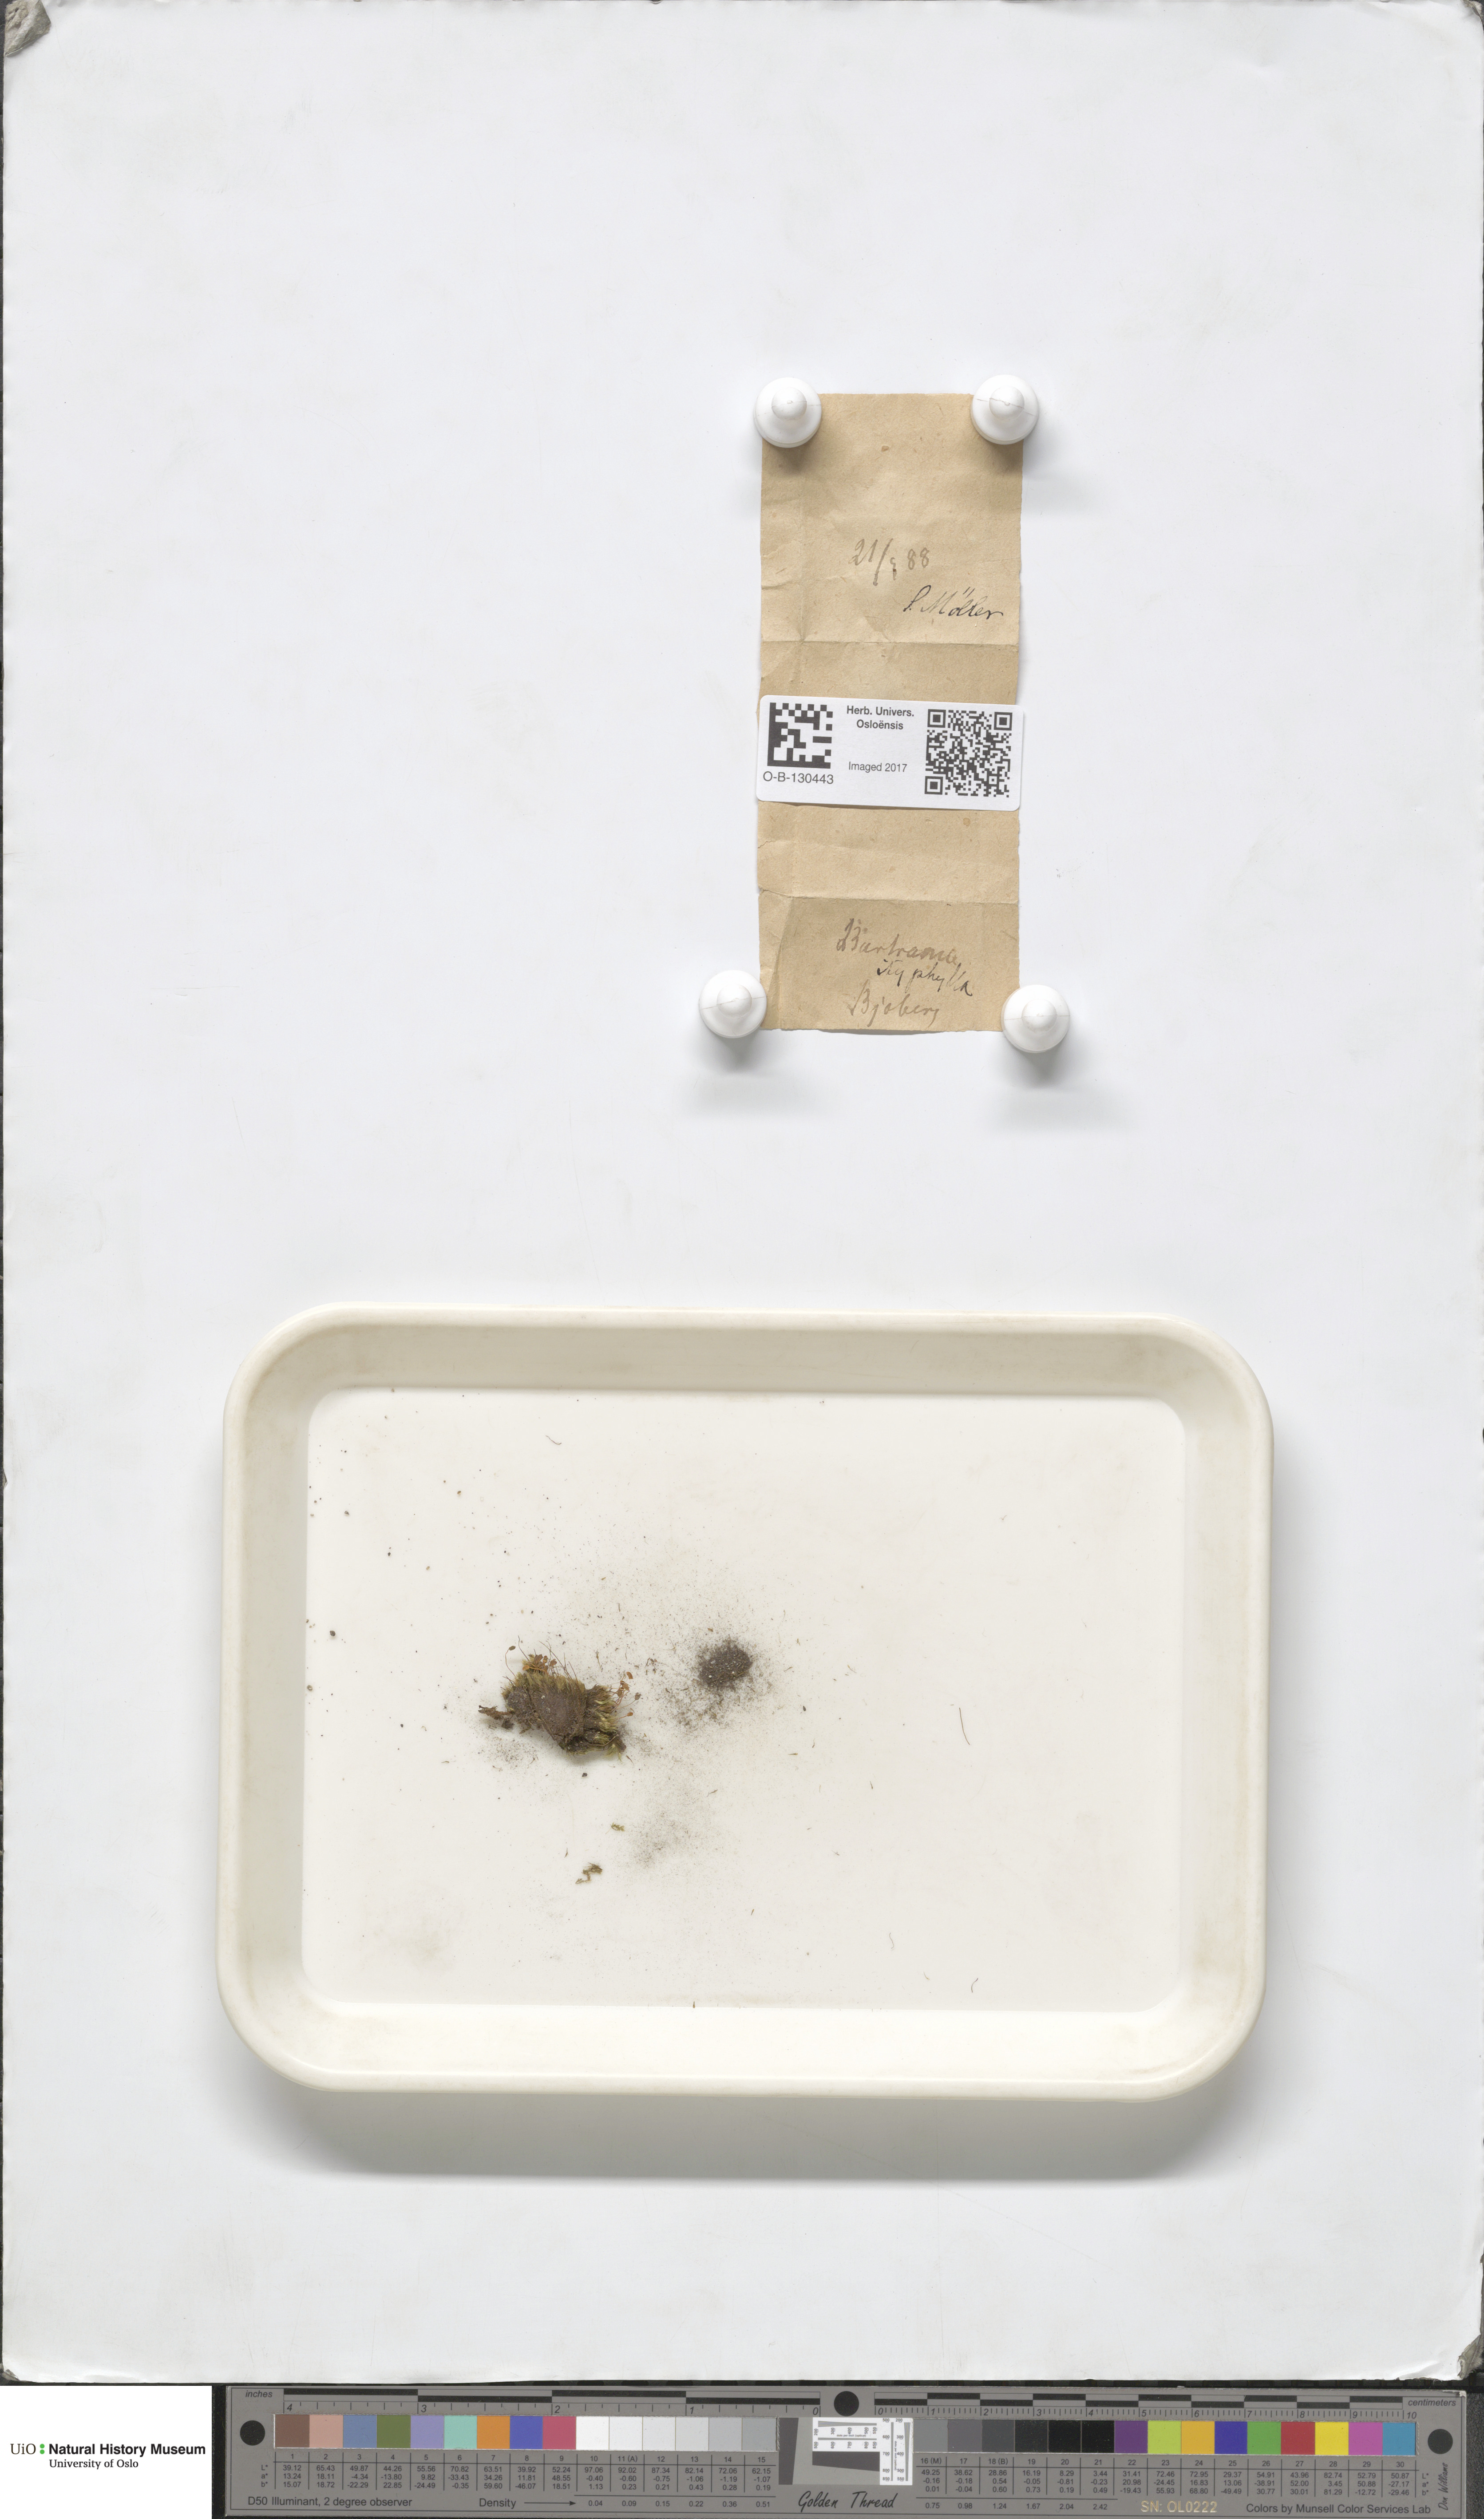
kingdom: Plantae
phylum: Bryophyta
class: Bryopsida
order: Bartramiales
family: Bartramiaceae
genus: Bartramia
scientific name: Bartramia ithyphylla
